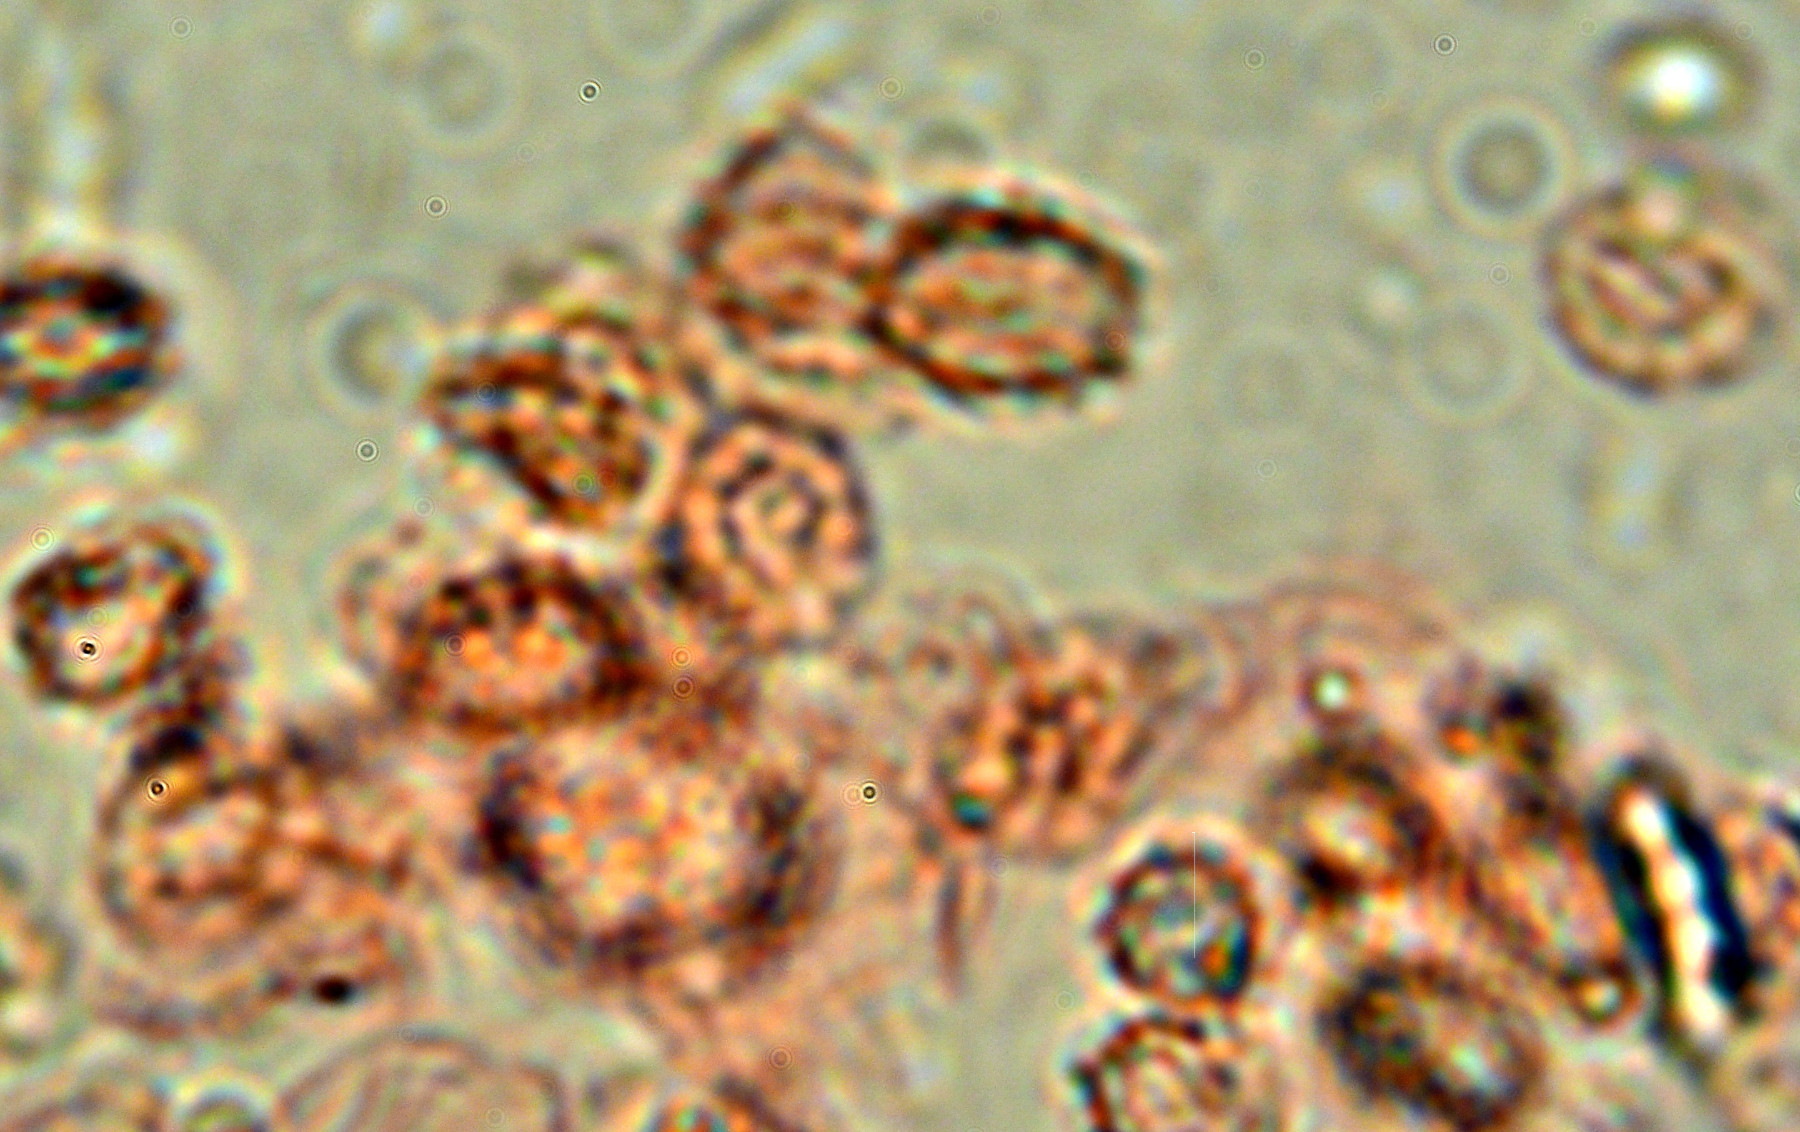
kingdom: Fungi
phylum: Basidiomycota
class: Agaricomycetes
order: Russulales
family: Xenasmataceae
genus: Xenasmatella
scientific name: Xenasmatella vaga
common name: svovl-strenghinde
